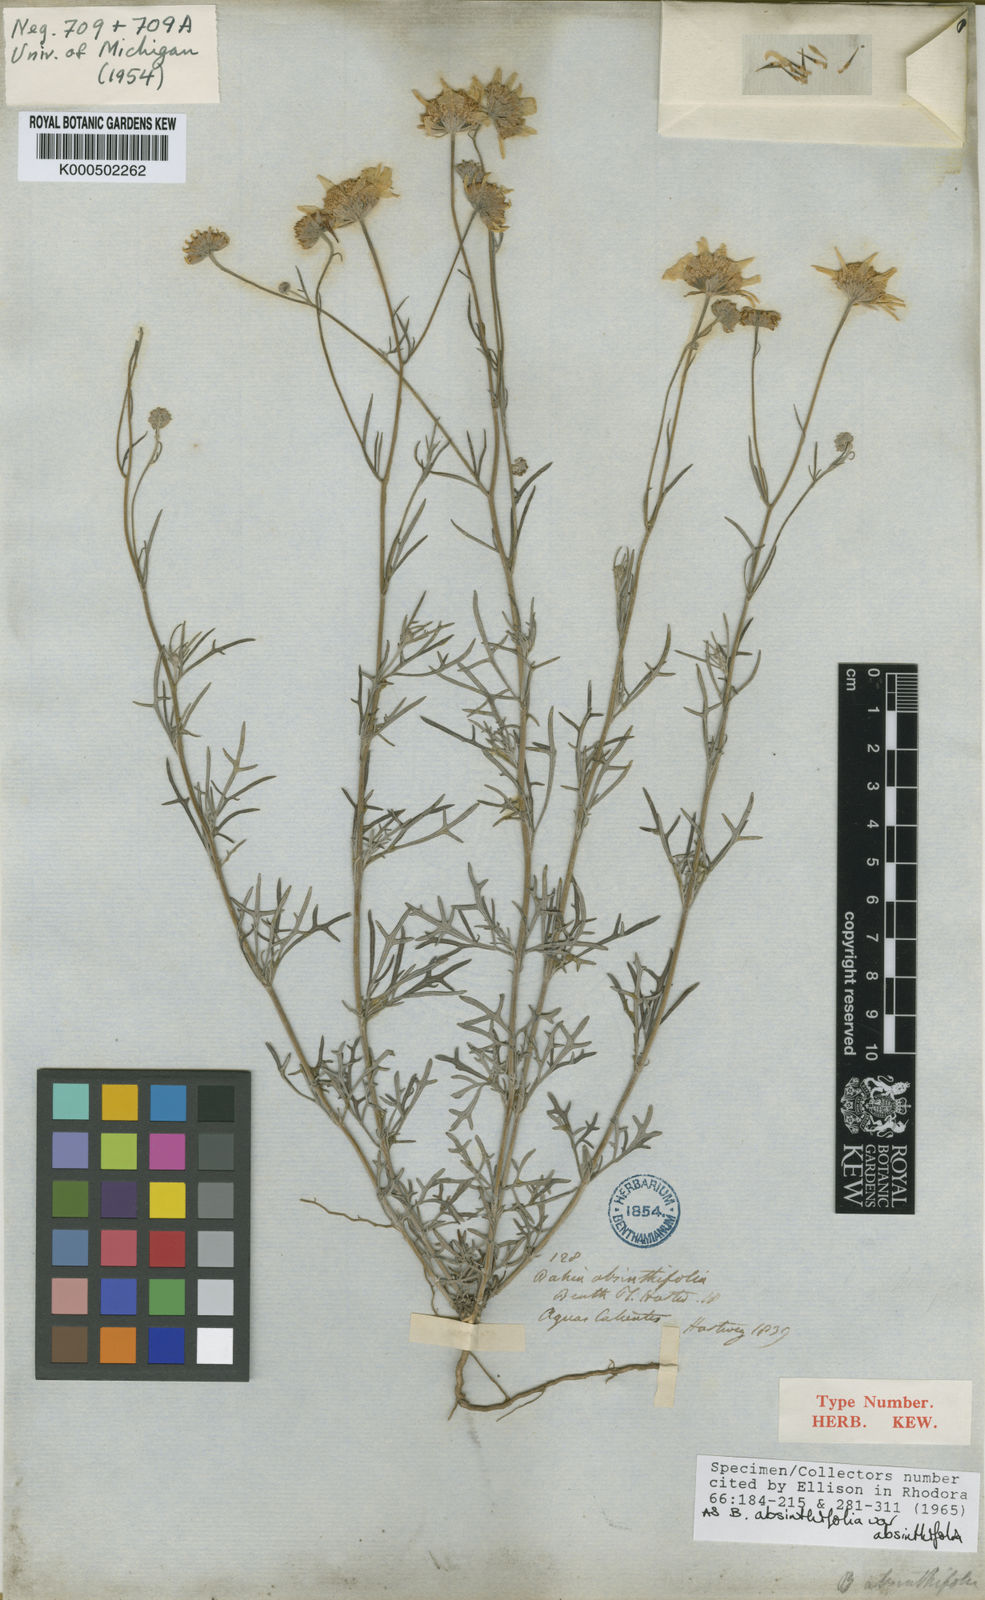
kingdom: Plantae
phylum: Tracheophyta
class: Magnoliopsida
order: Asterales
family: Asteraceae
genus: Picradeniopsis
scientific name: Picradeniopsis absinthifolia
